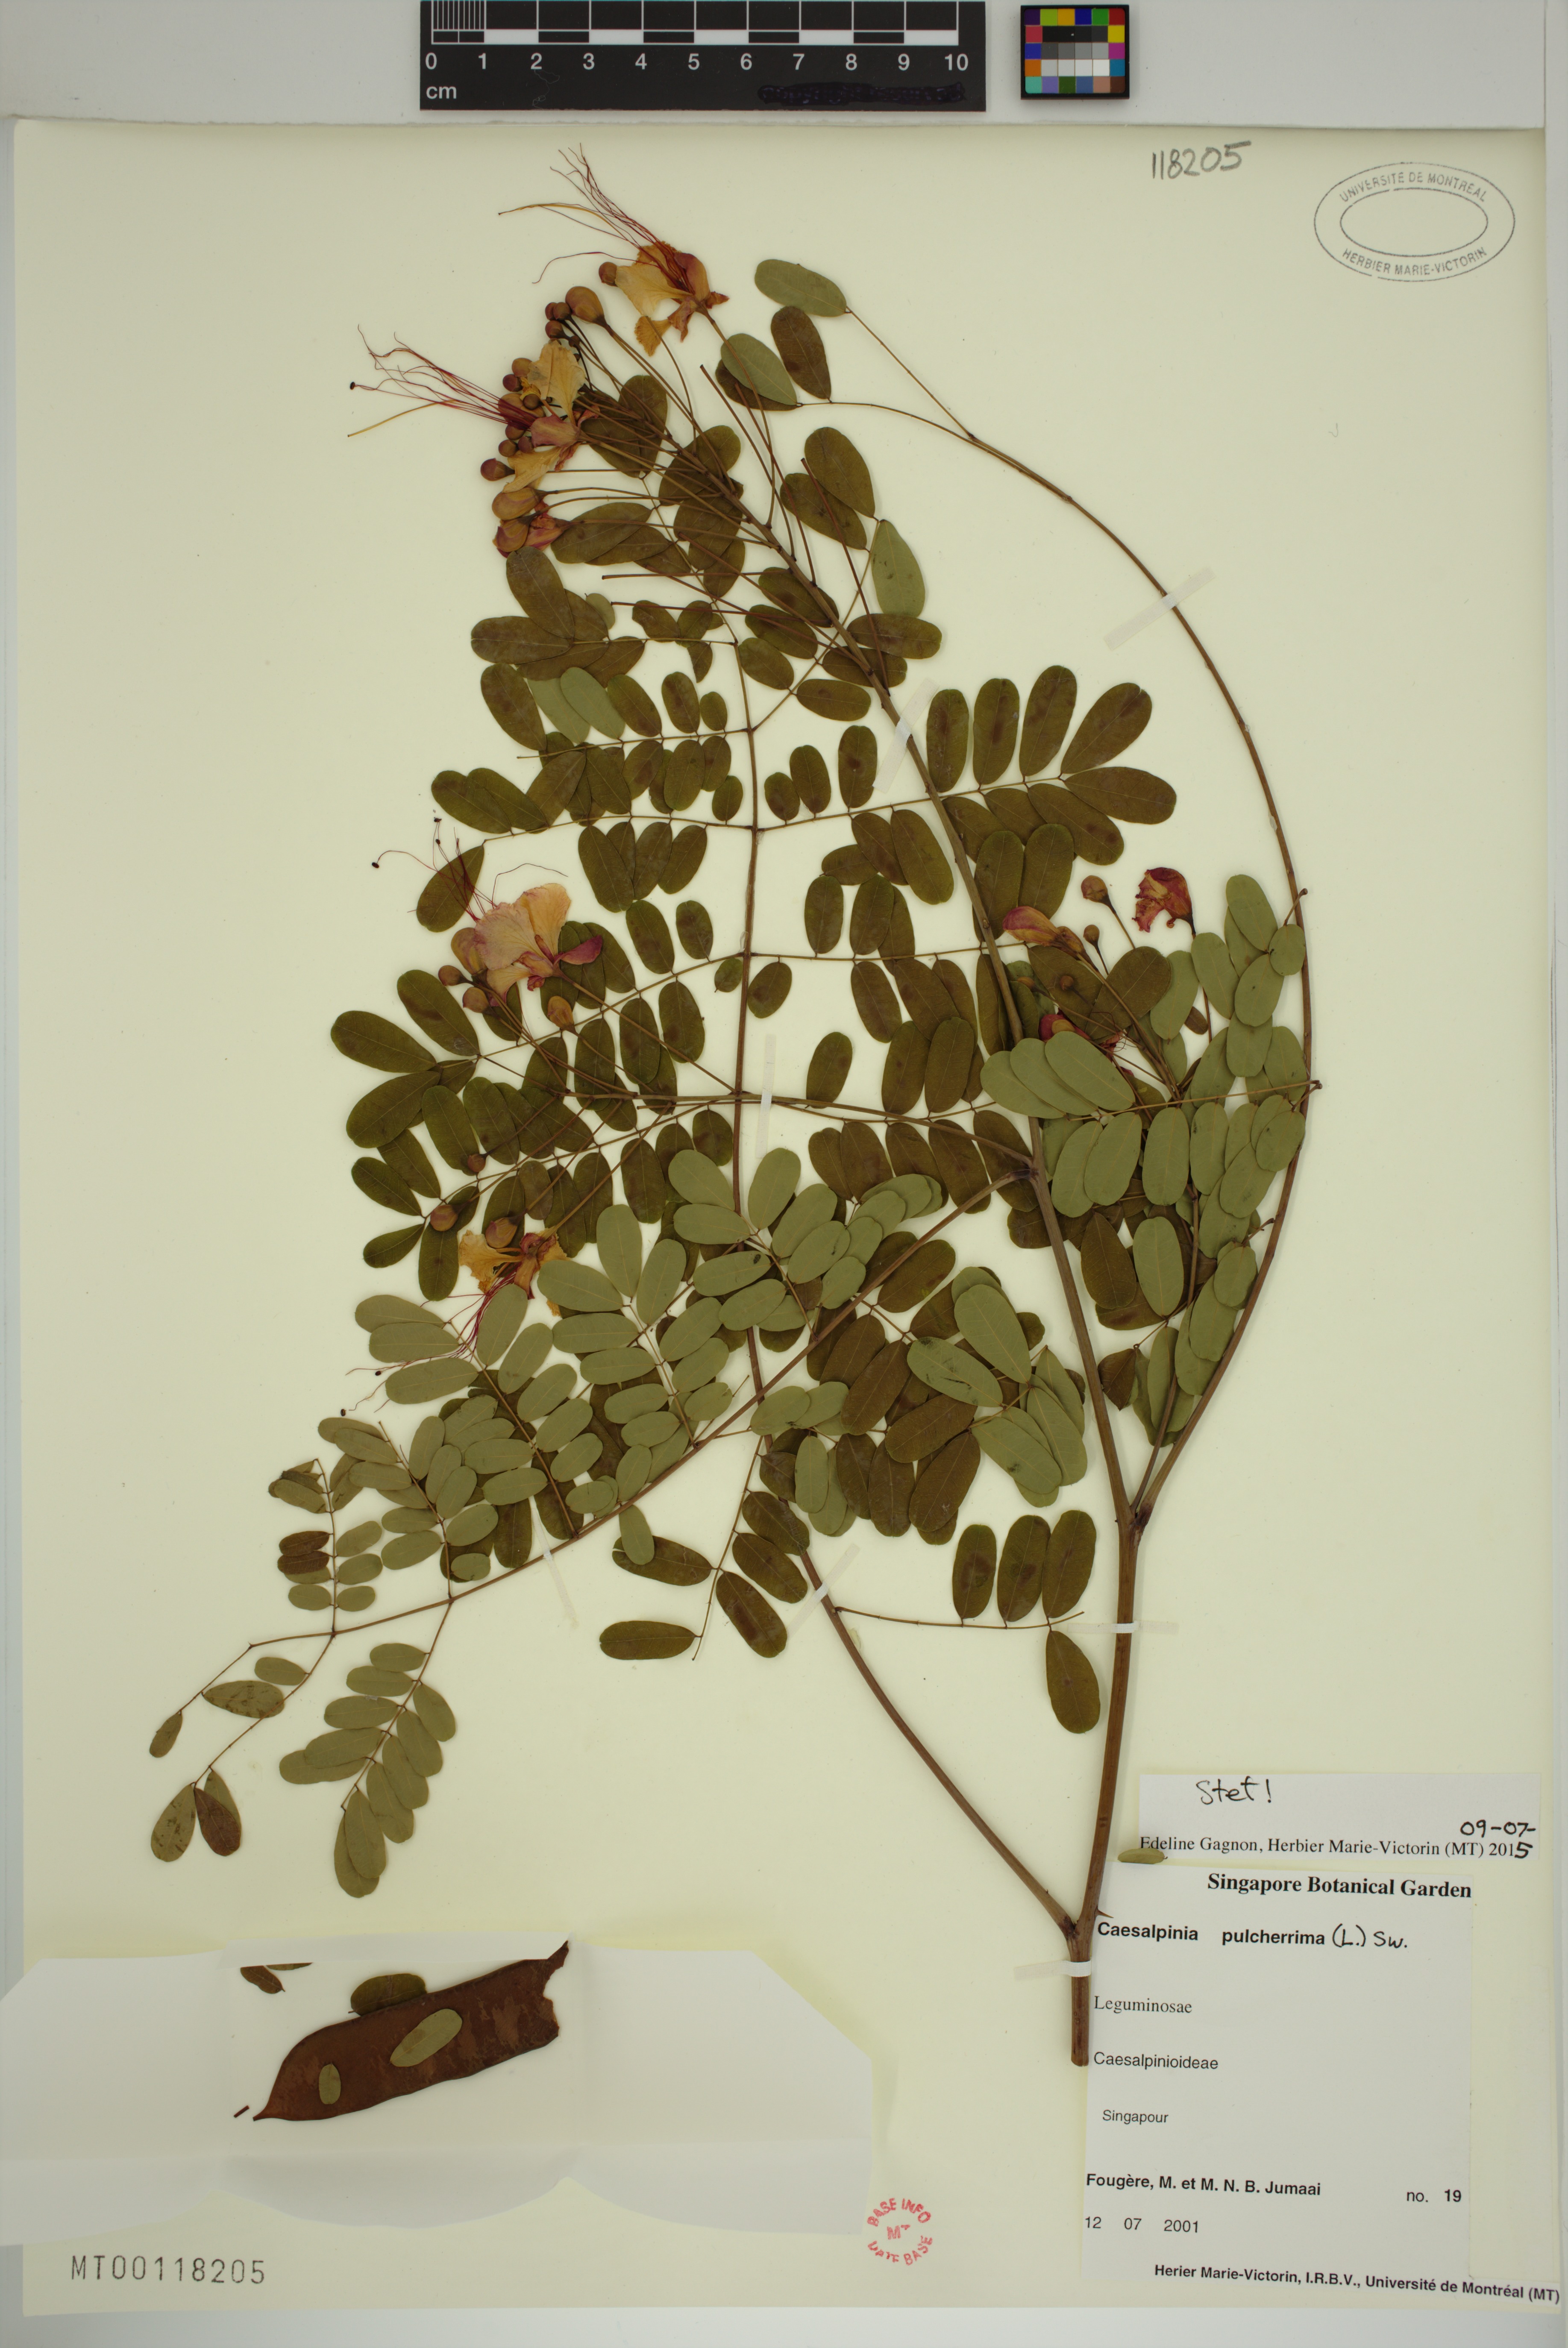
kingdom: Plantae
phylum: Tracheophyta
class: Magnoliopsida
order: Fabales
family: Fabaceae
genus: Caesalpinia
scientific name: Caesalpinia pulcherrima
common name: Pride-of-barbados
